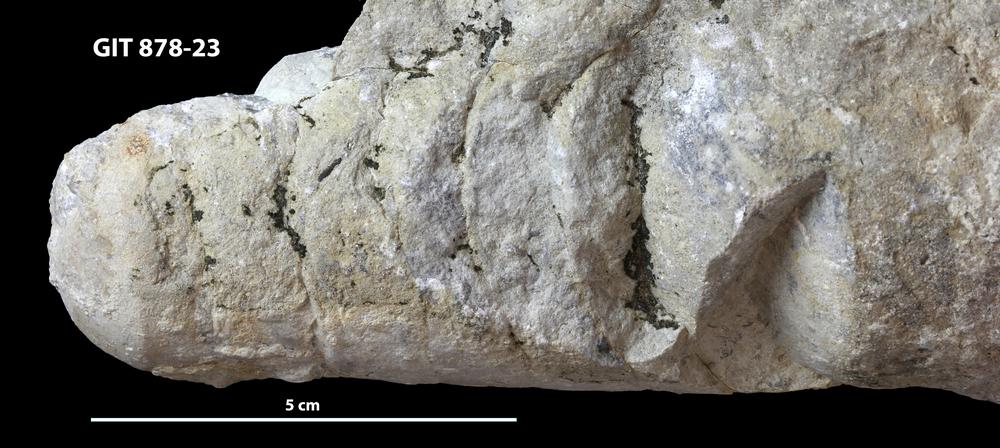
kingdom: Animalia
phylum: Mollusca
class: Cephalopoda
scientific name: Cephalopoda
